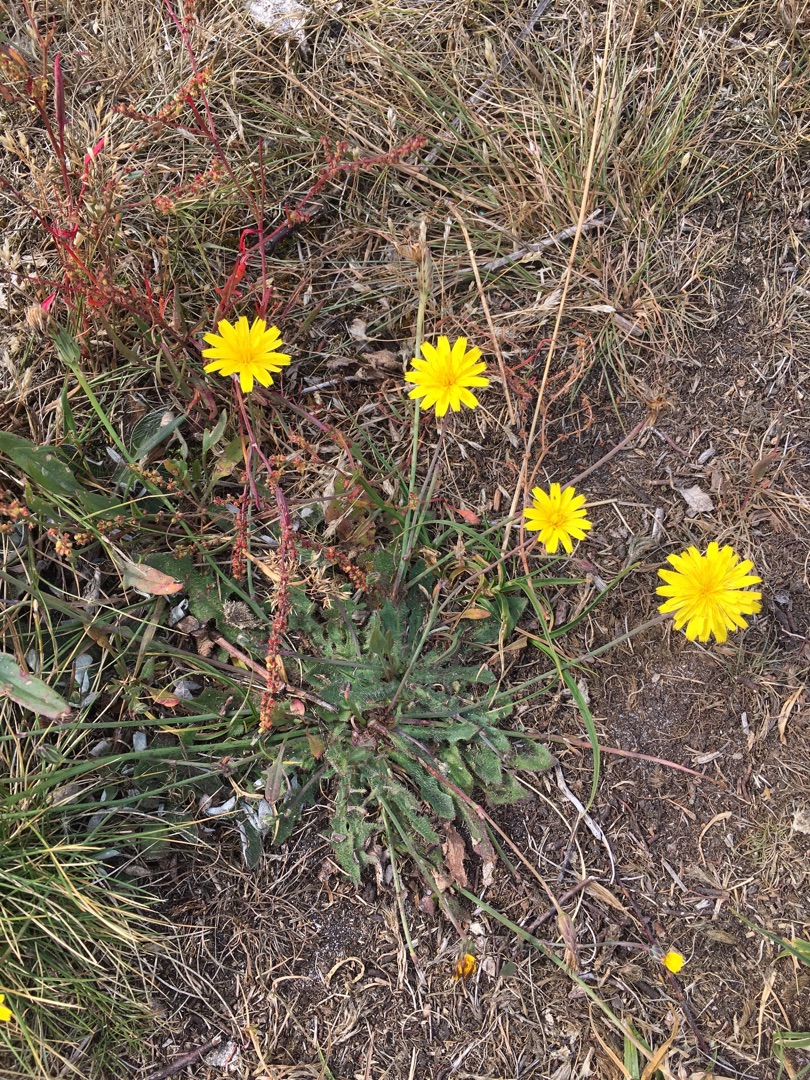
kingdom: Plantae
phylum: Tracheophyta
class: Magnoliopsida
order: Asterales
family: Asteraceae
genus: Thrincia
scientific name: Thrincia saxatilis
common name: Hundesalat
